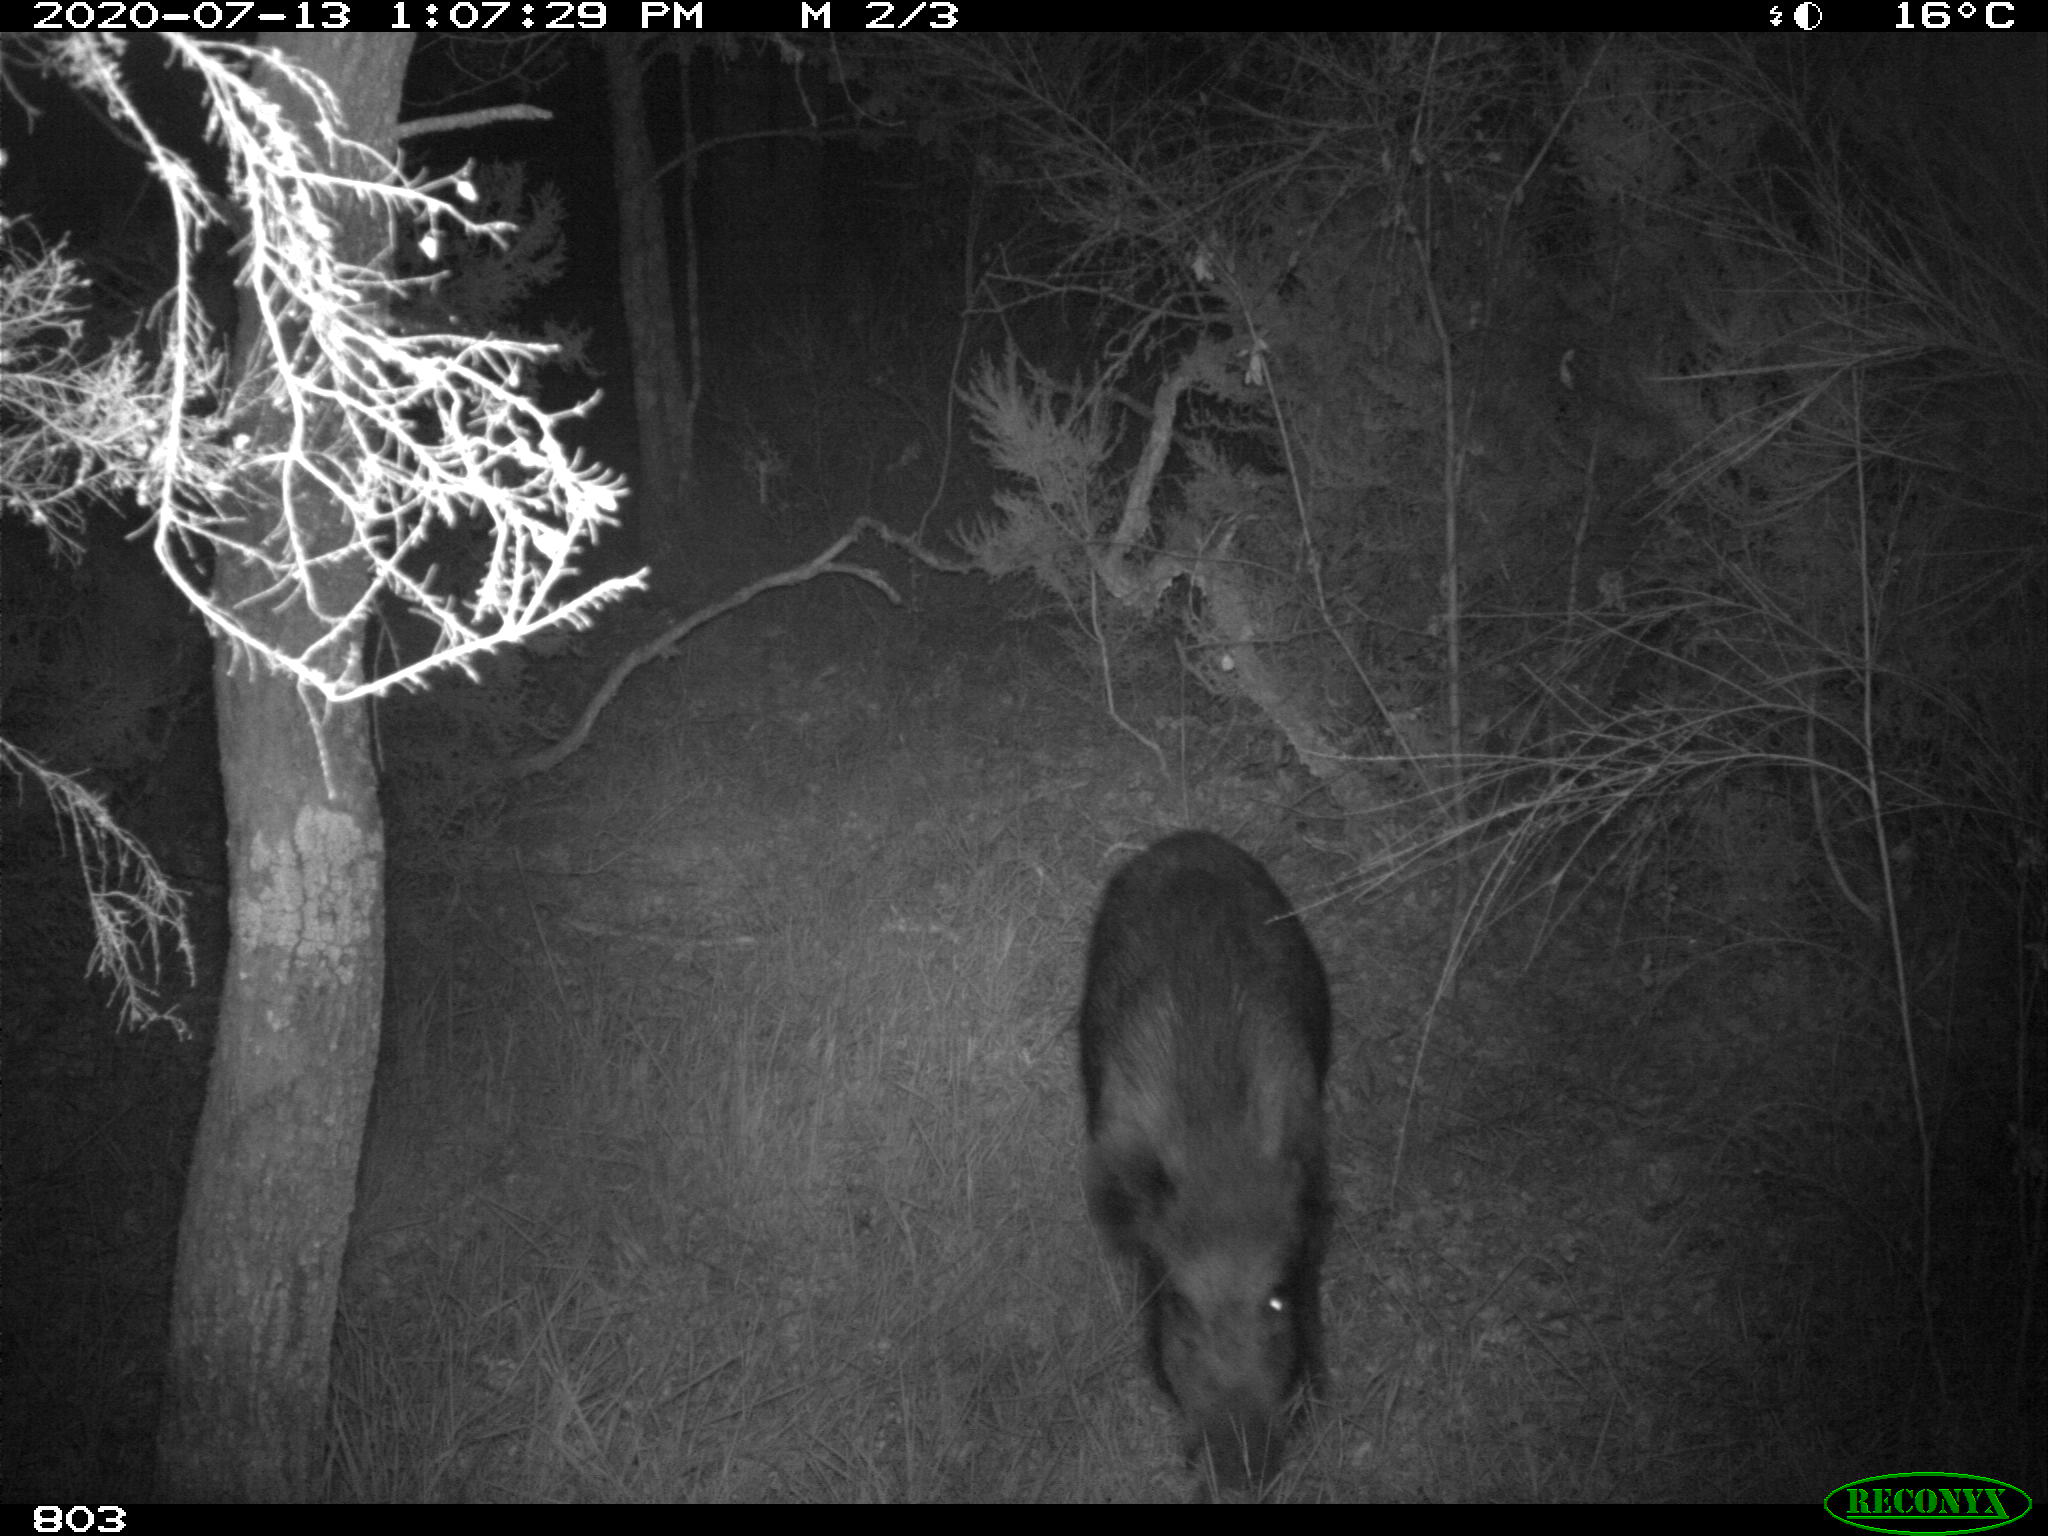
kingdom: Animalia
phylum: Chordata
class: Mammalia
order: Artiodactyla
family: Suidae
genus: Sus
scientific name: Sus scrofa
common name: Wild boar
